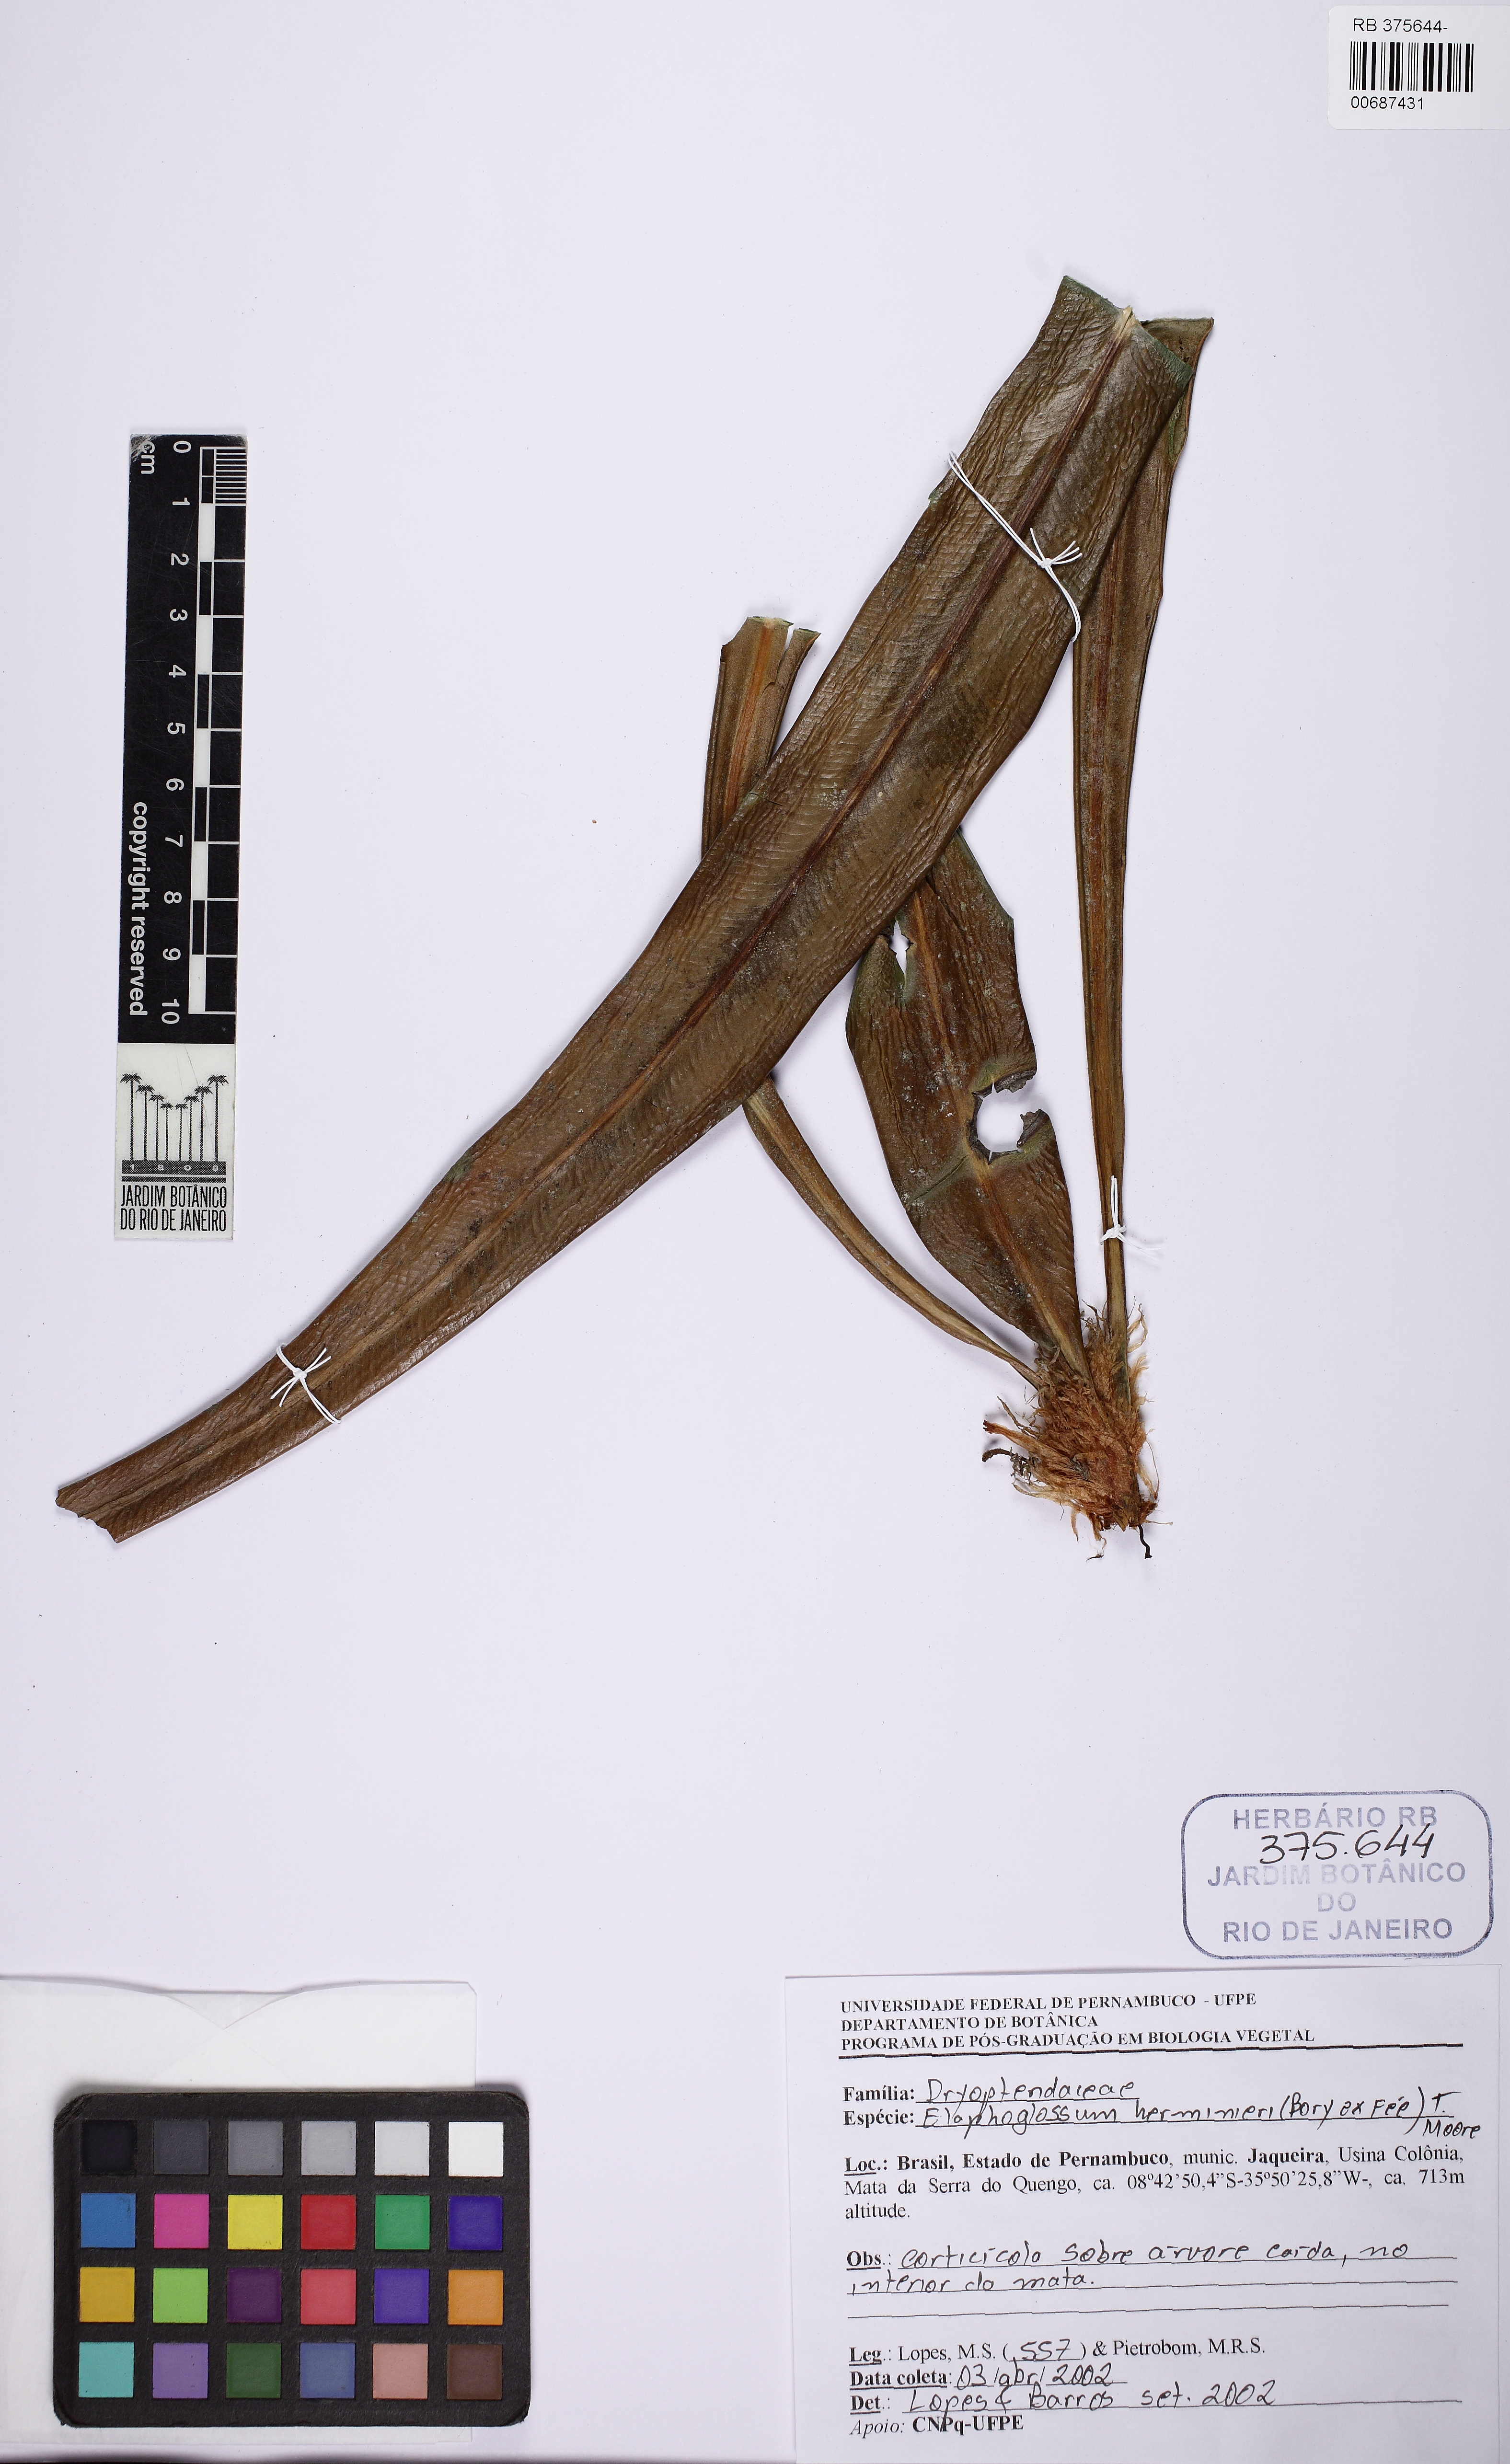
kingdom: Plantae
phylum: Tracheophyta
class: Polypodiopsida
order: Polypodiales
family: Dryopteridaceae
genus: Elaphoglossum
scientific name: Elaphoglossum herminieri
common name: Drooping tonguefern
